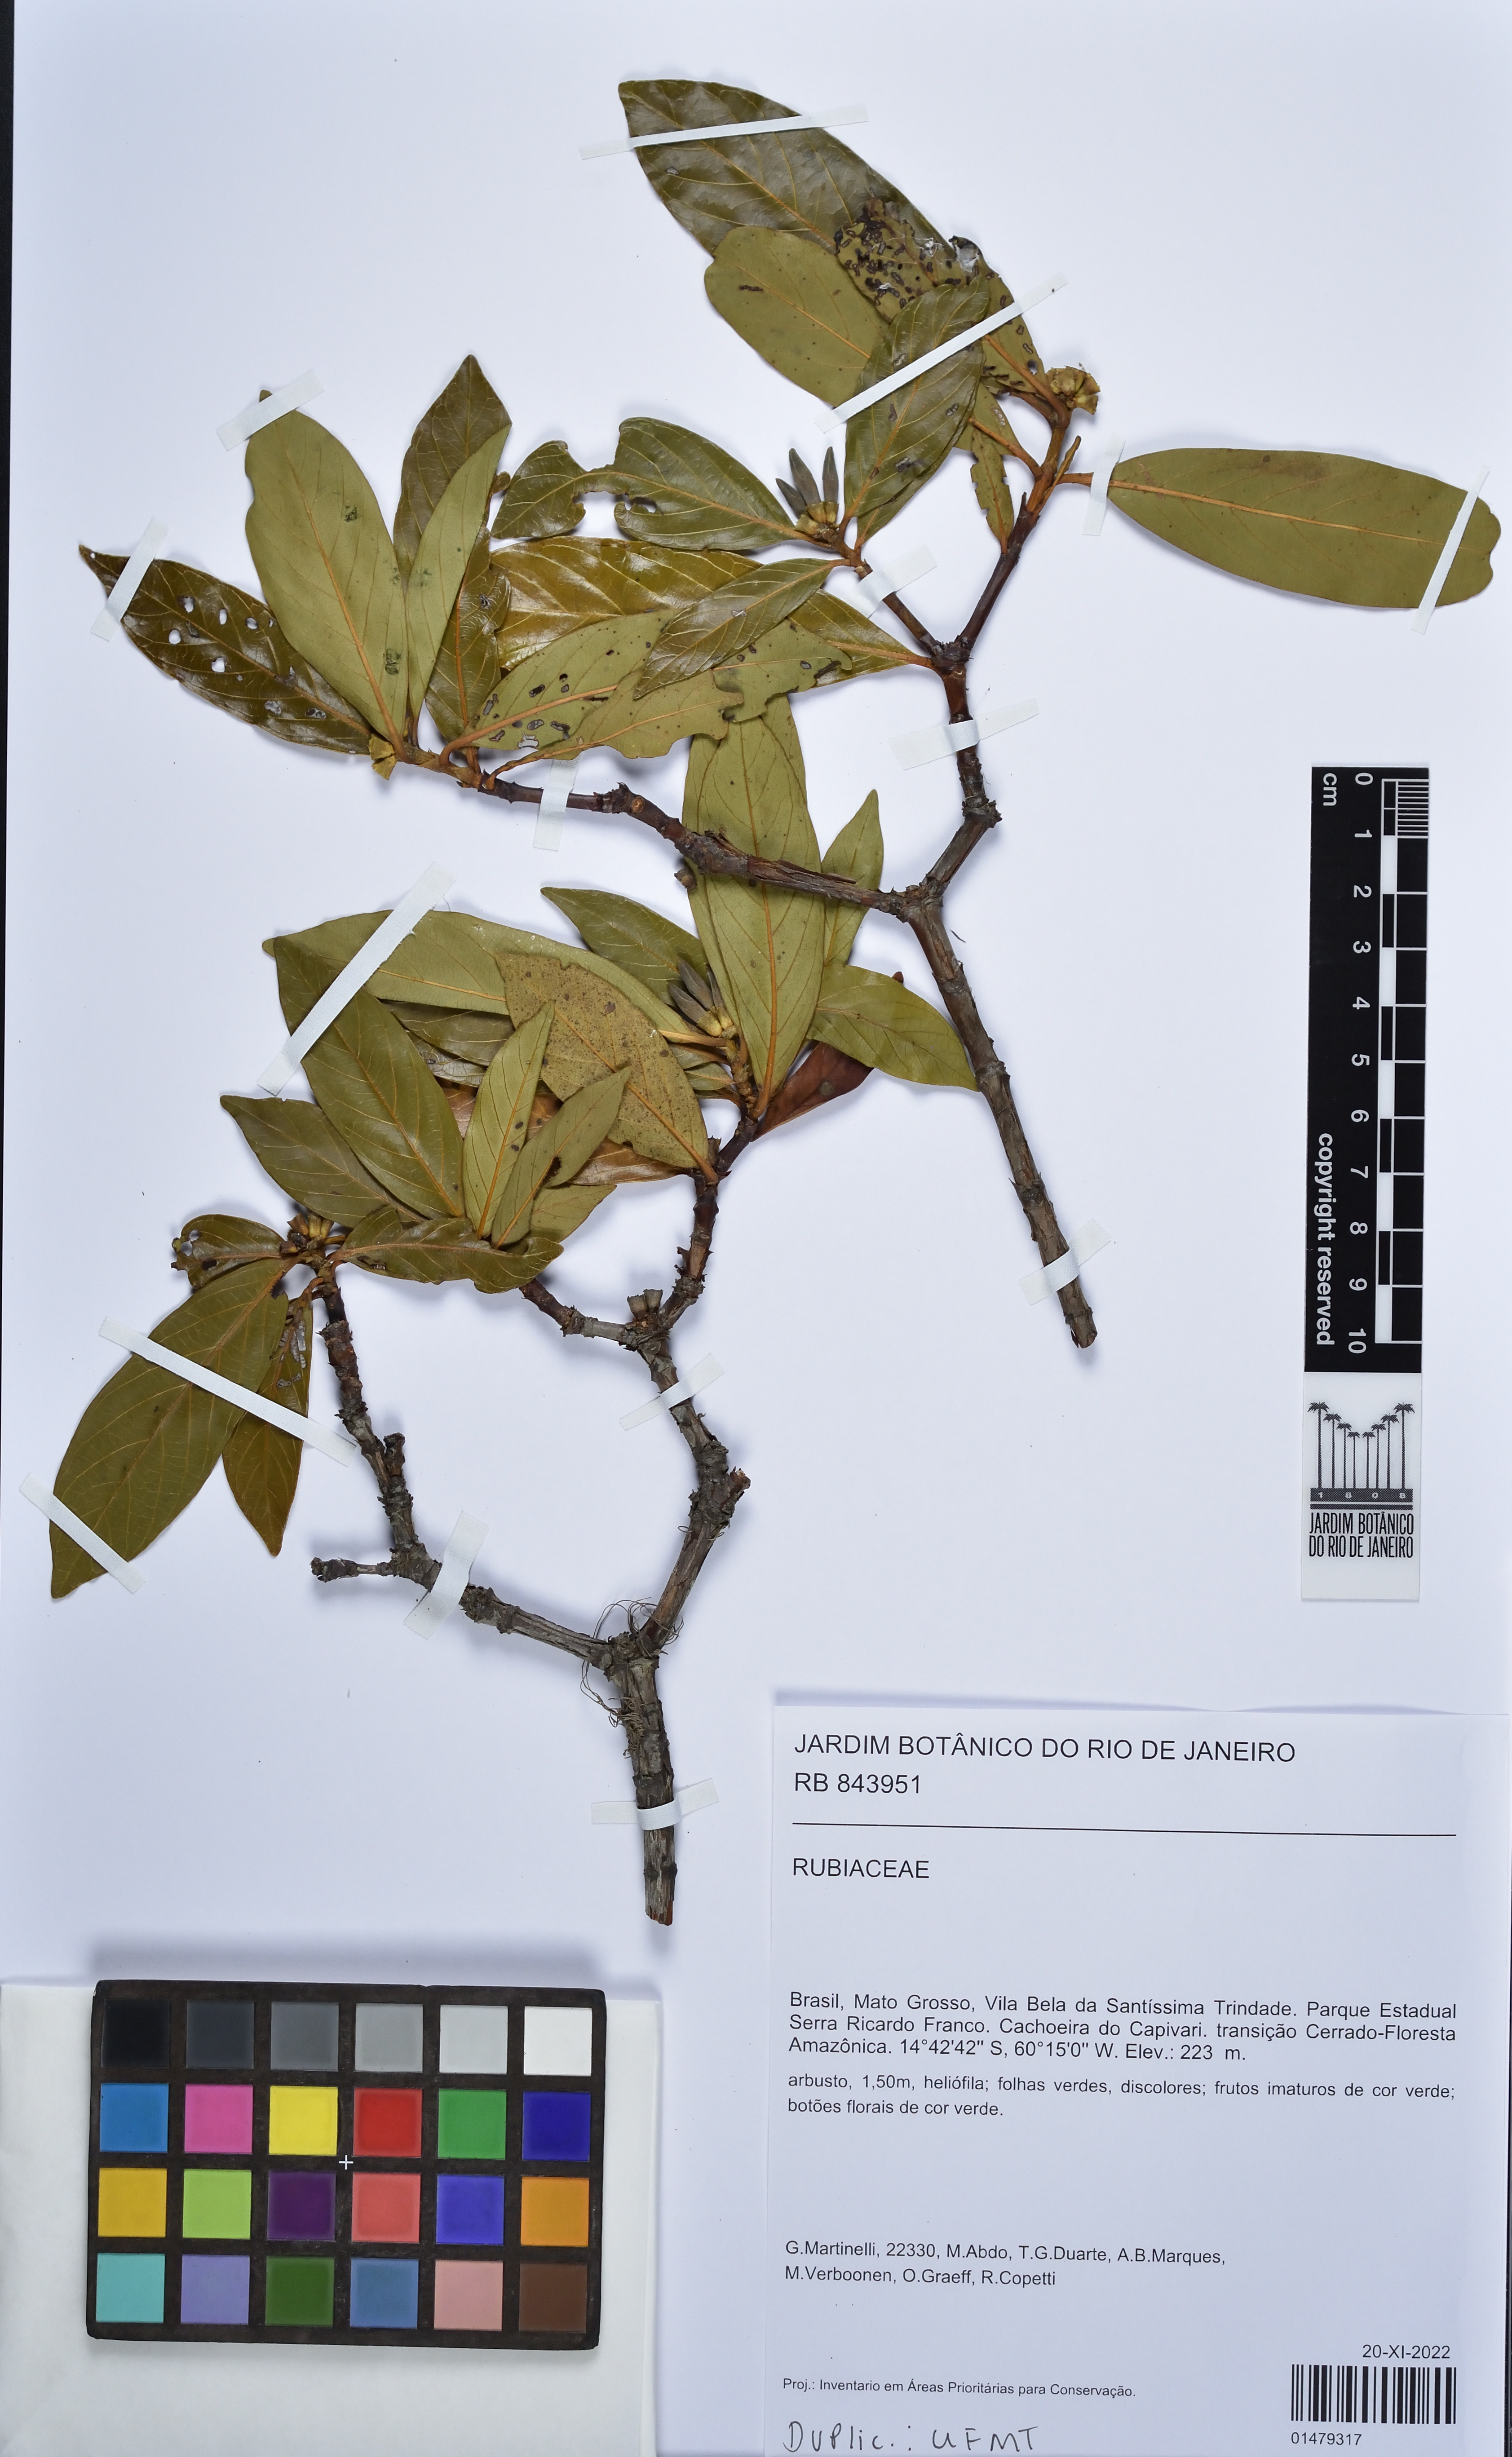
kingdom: Plantae
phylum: Tracheophyta
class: Magnoliopsida
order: Gentianales
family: Rubiaceae
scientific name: Rubiaceae
